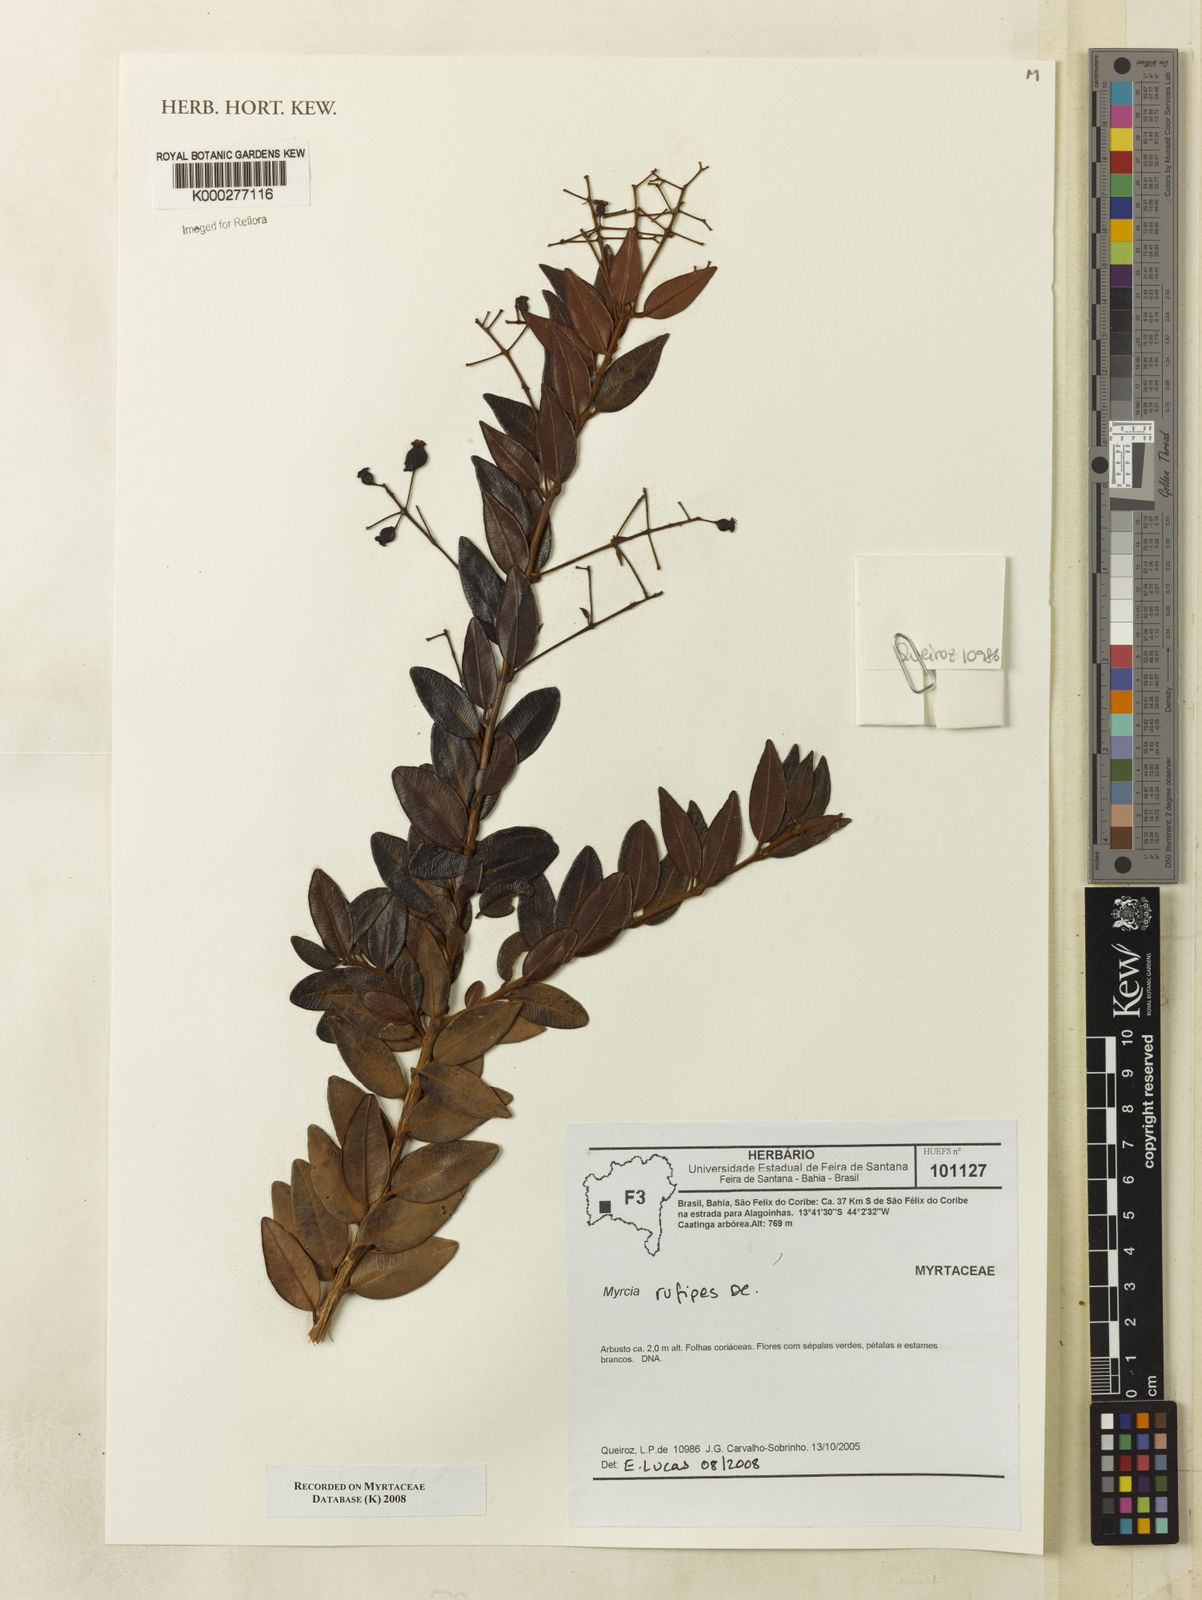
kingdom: Plantae
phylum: Tracheophyta
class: Magnoliopsida
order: Myrtales
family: Myrtaceae
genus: Myrcia
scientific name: Myrcia rufipes
